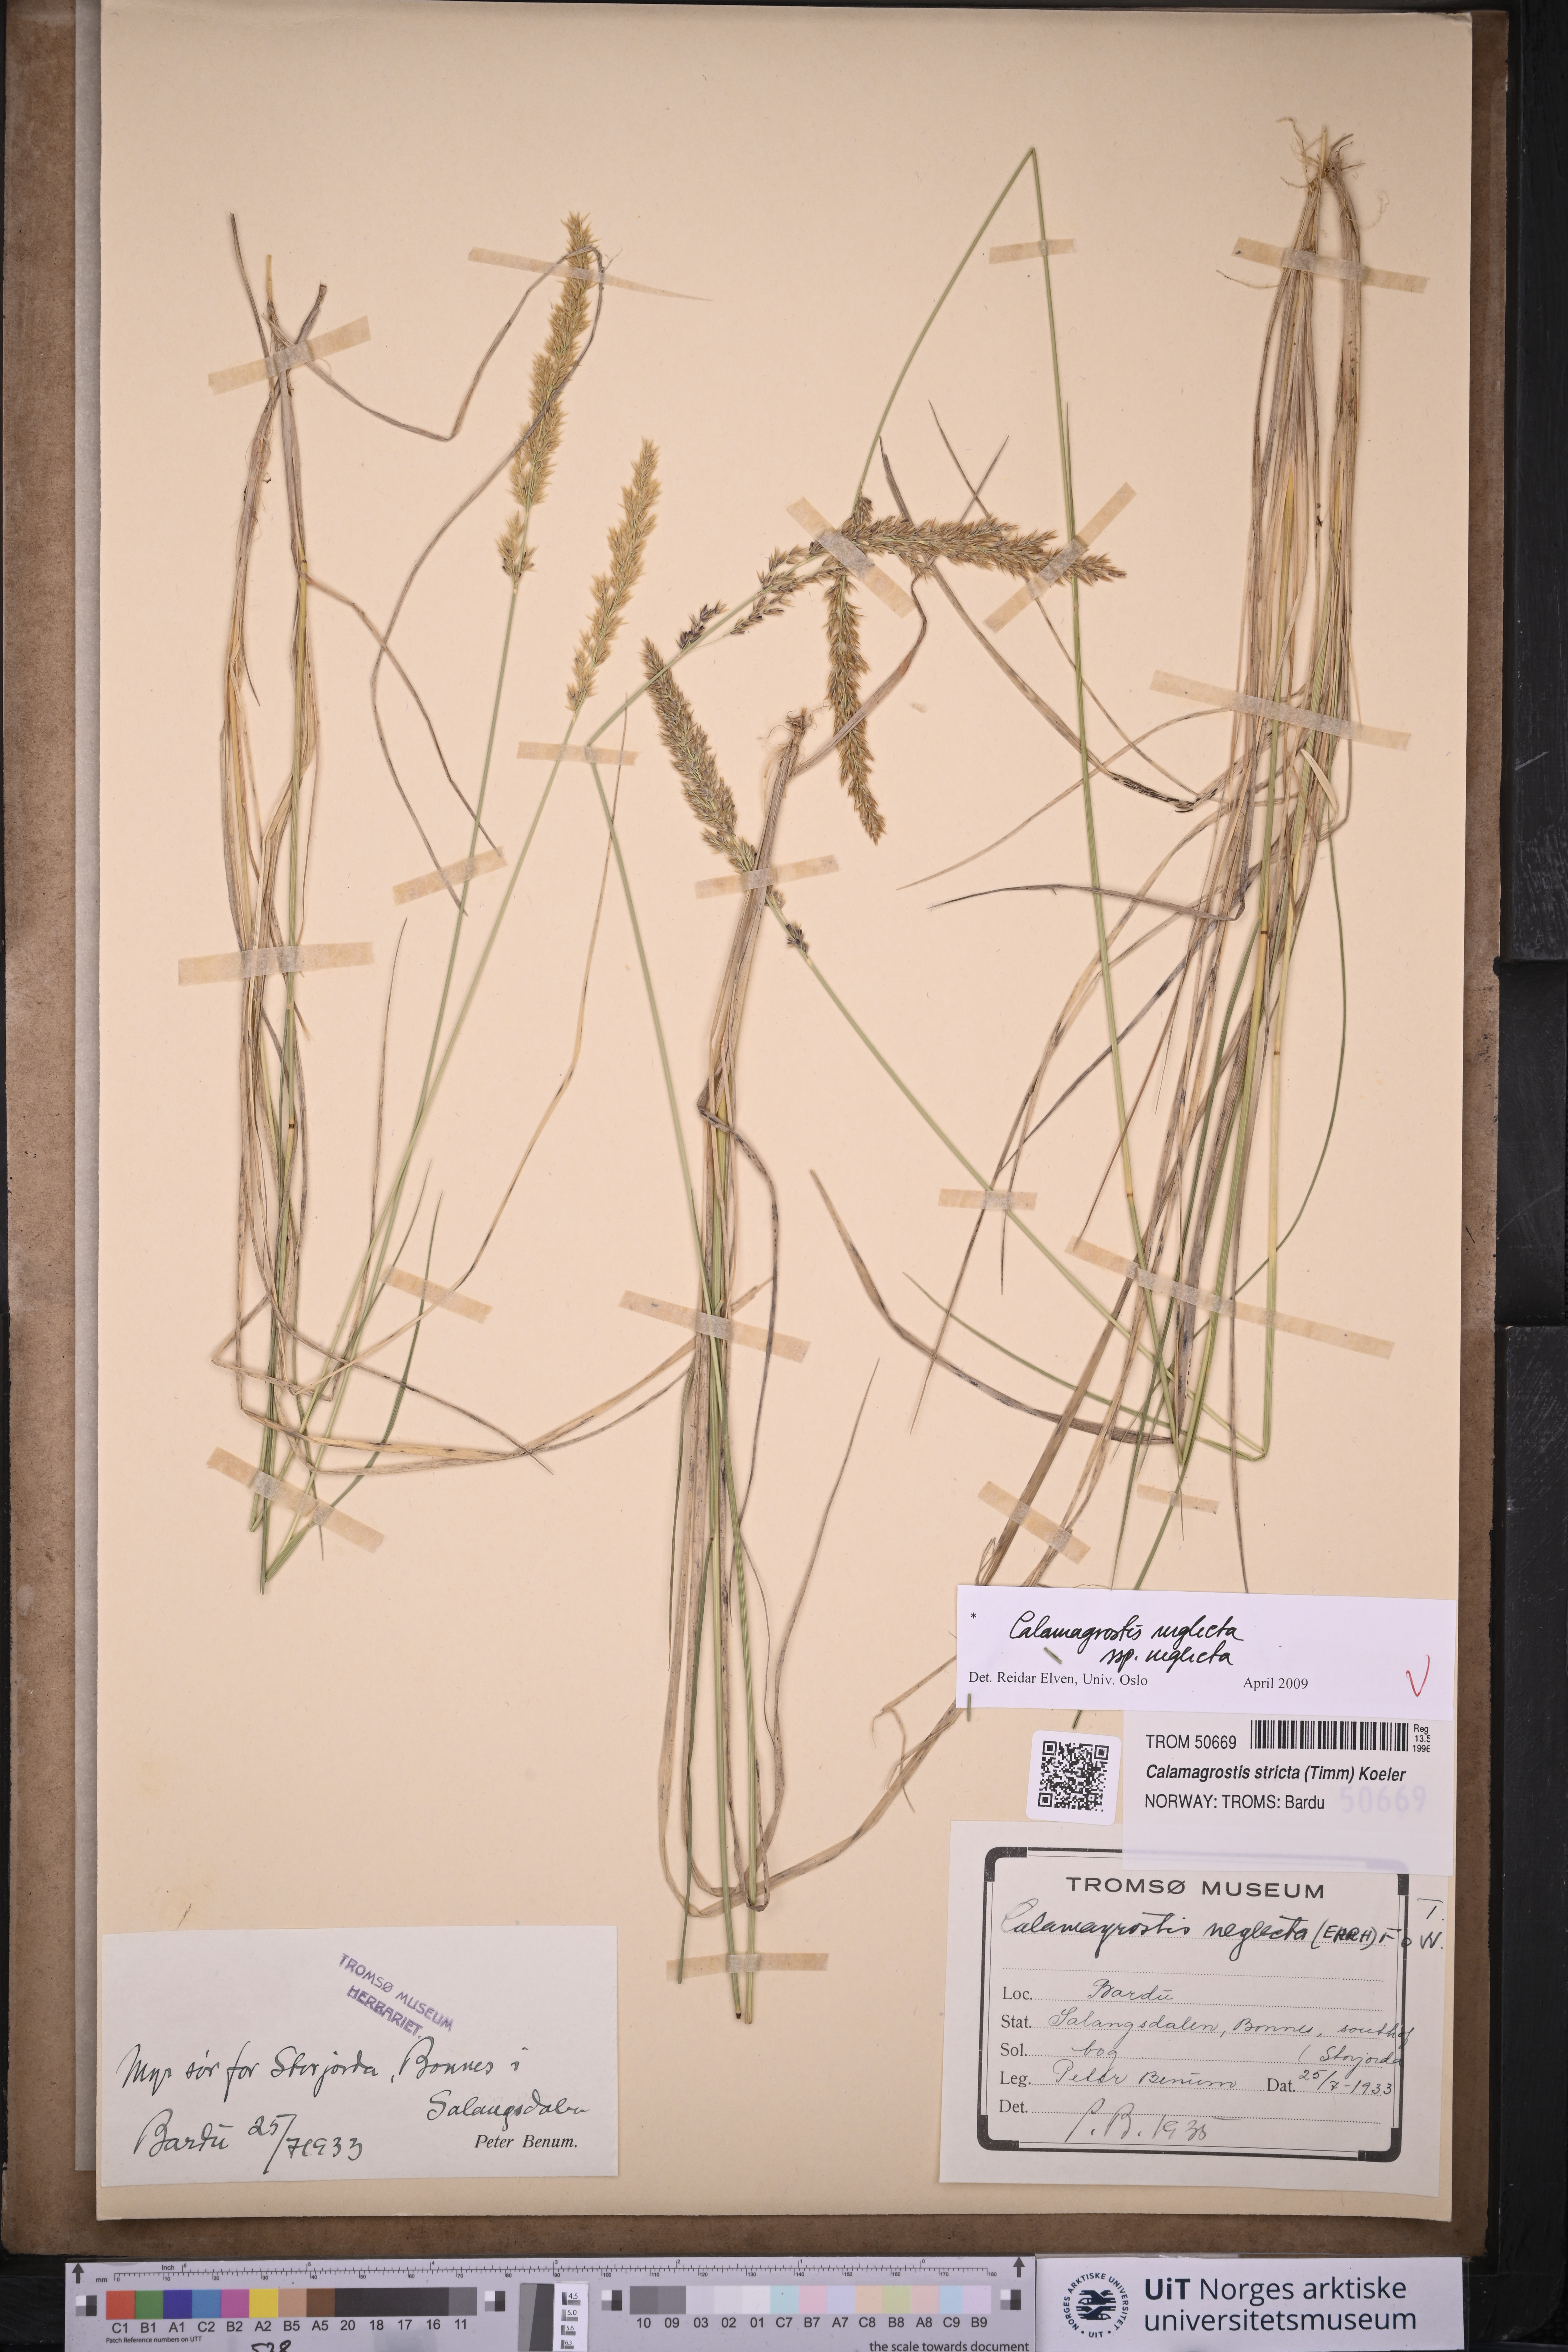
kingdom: Plantae
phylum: Tracheophyta
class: Liliopsida
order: Poales
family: Poaceae
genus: Achnatherum
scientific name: Achnatherum calamagrostis
